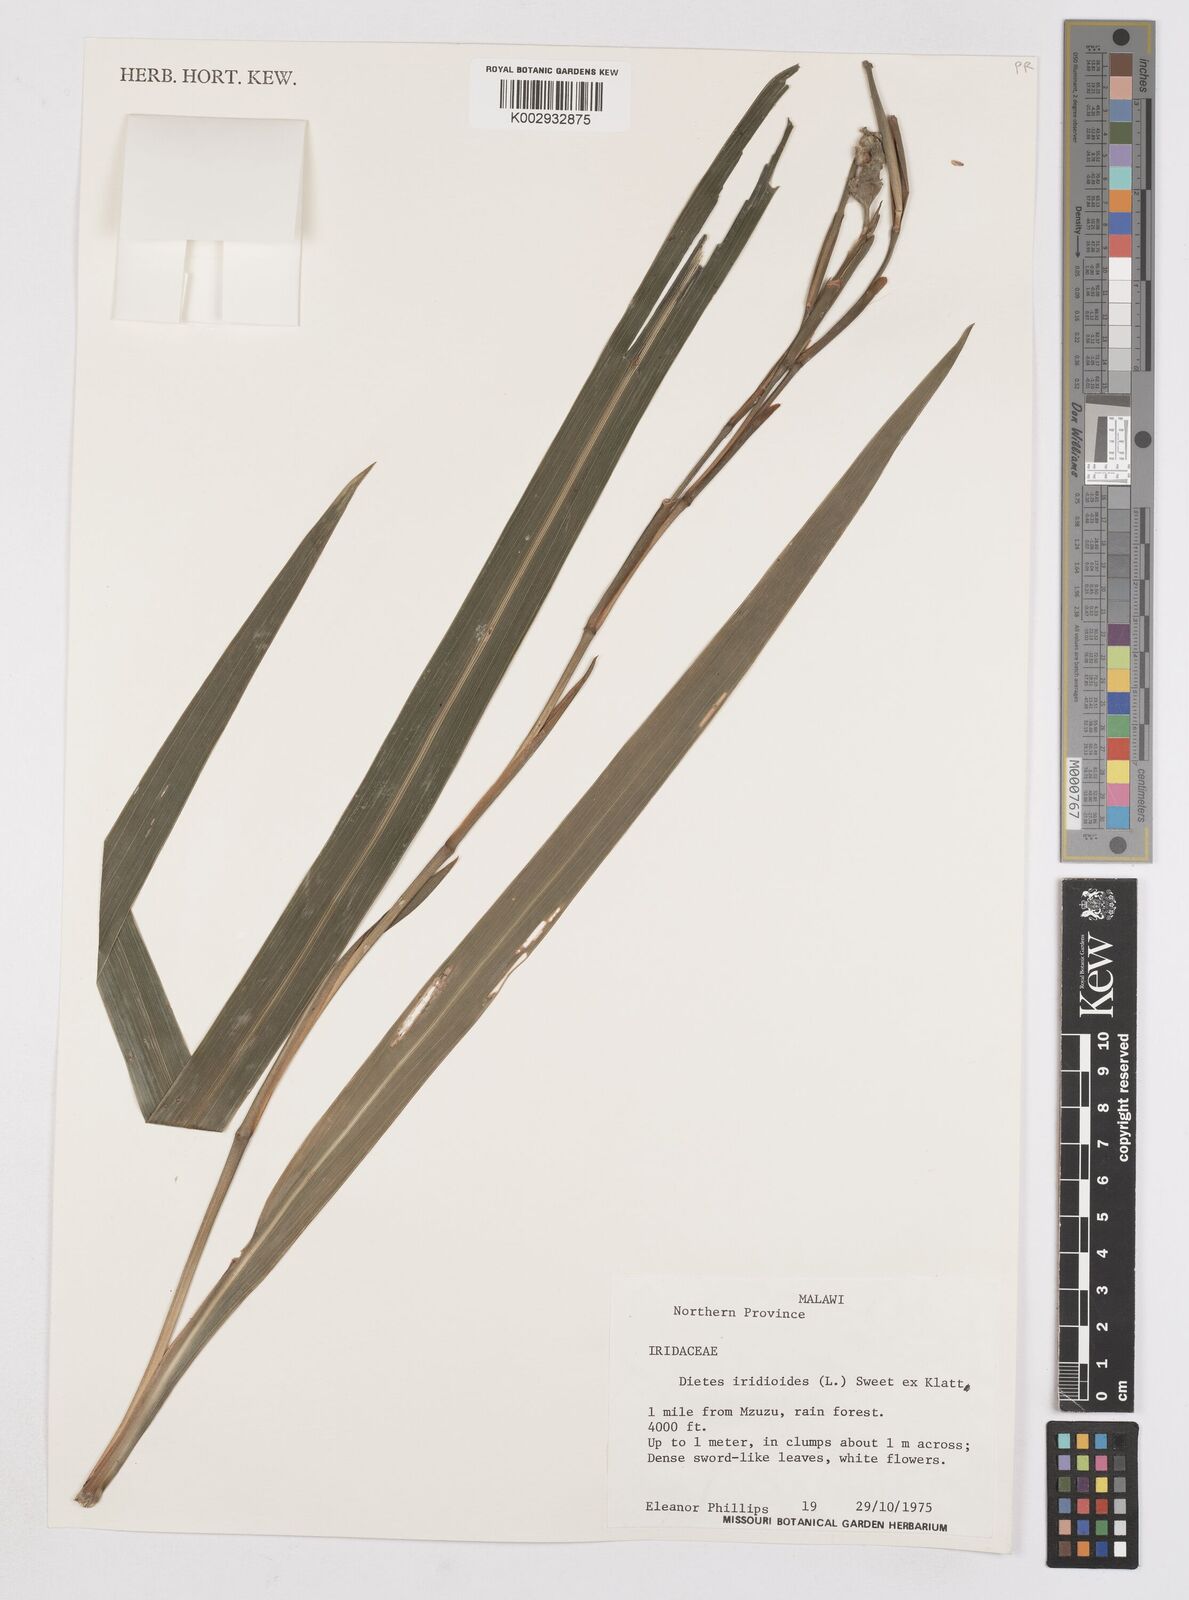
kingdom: Plantae
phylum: Tracheophyta
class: Liliopsida
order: Asparagales
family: Iridaceae
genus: Dietes
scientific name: Dietes iridioides
